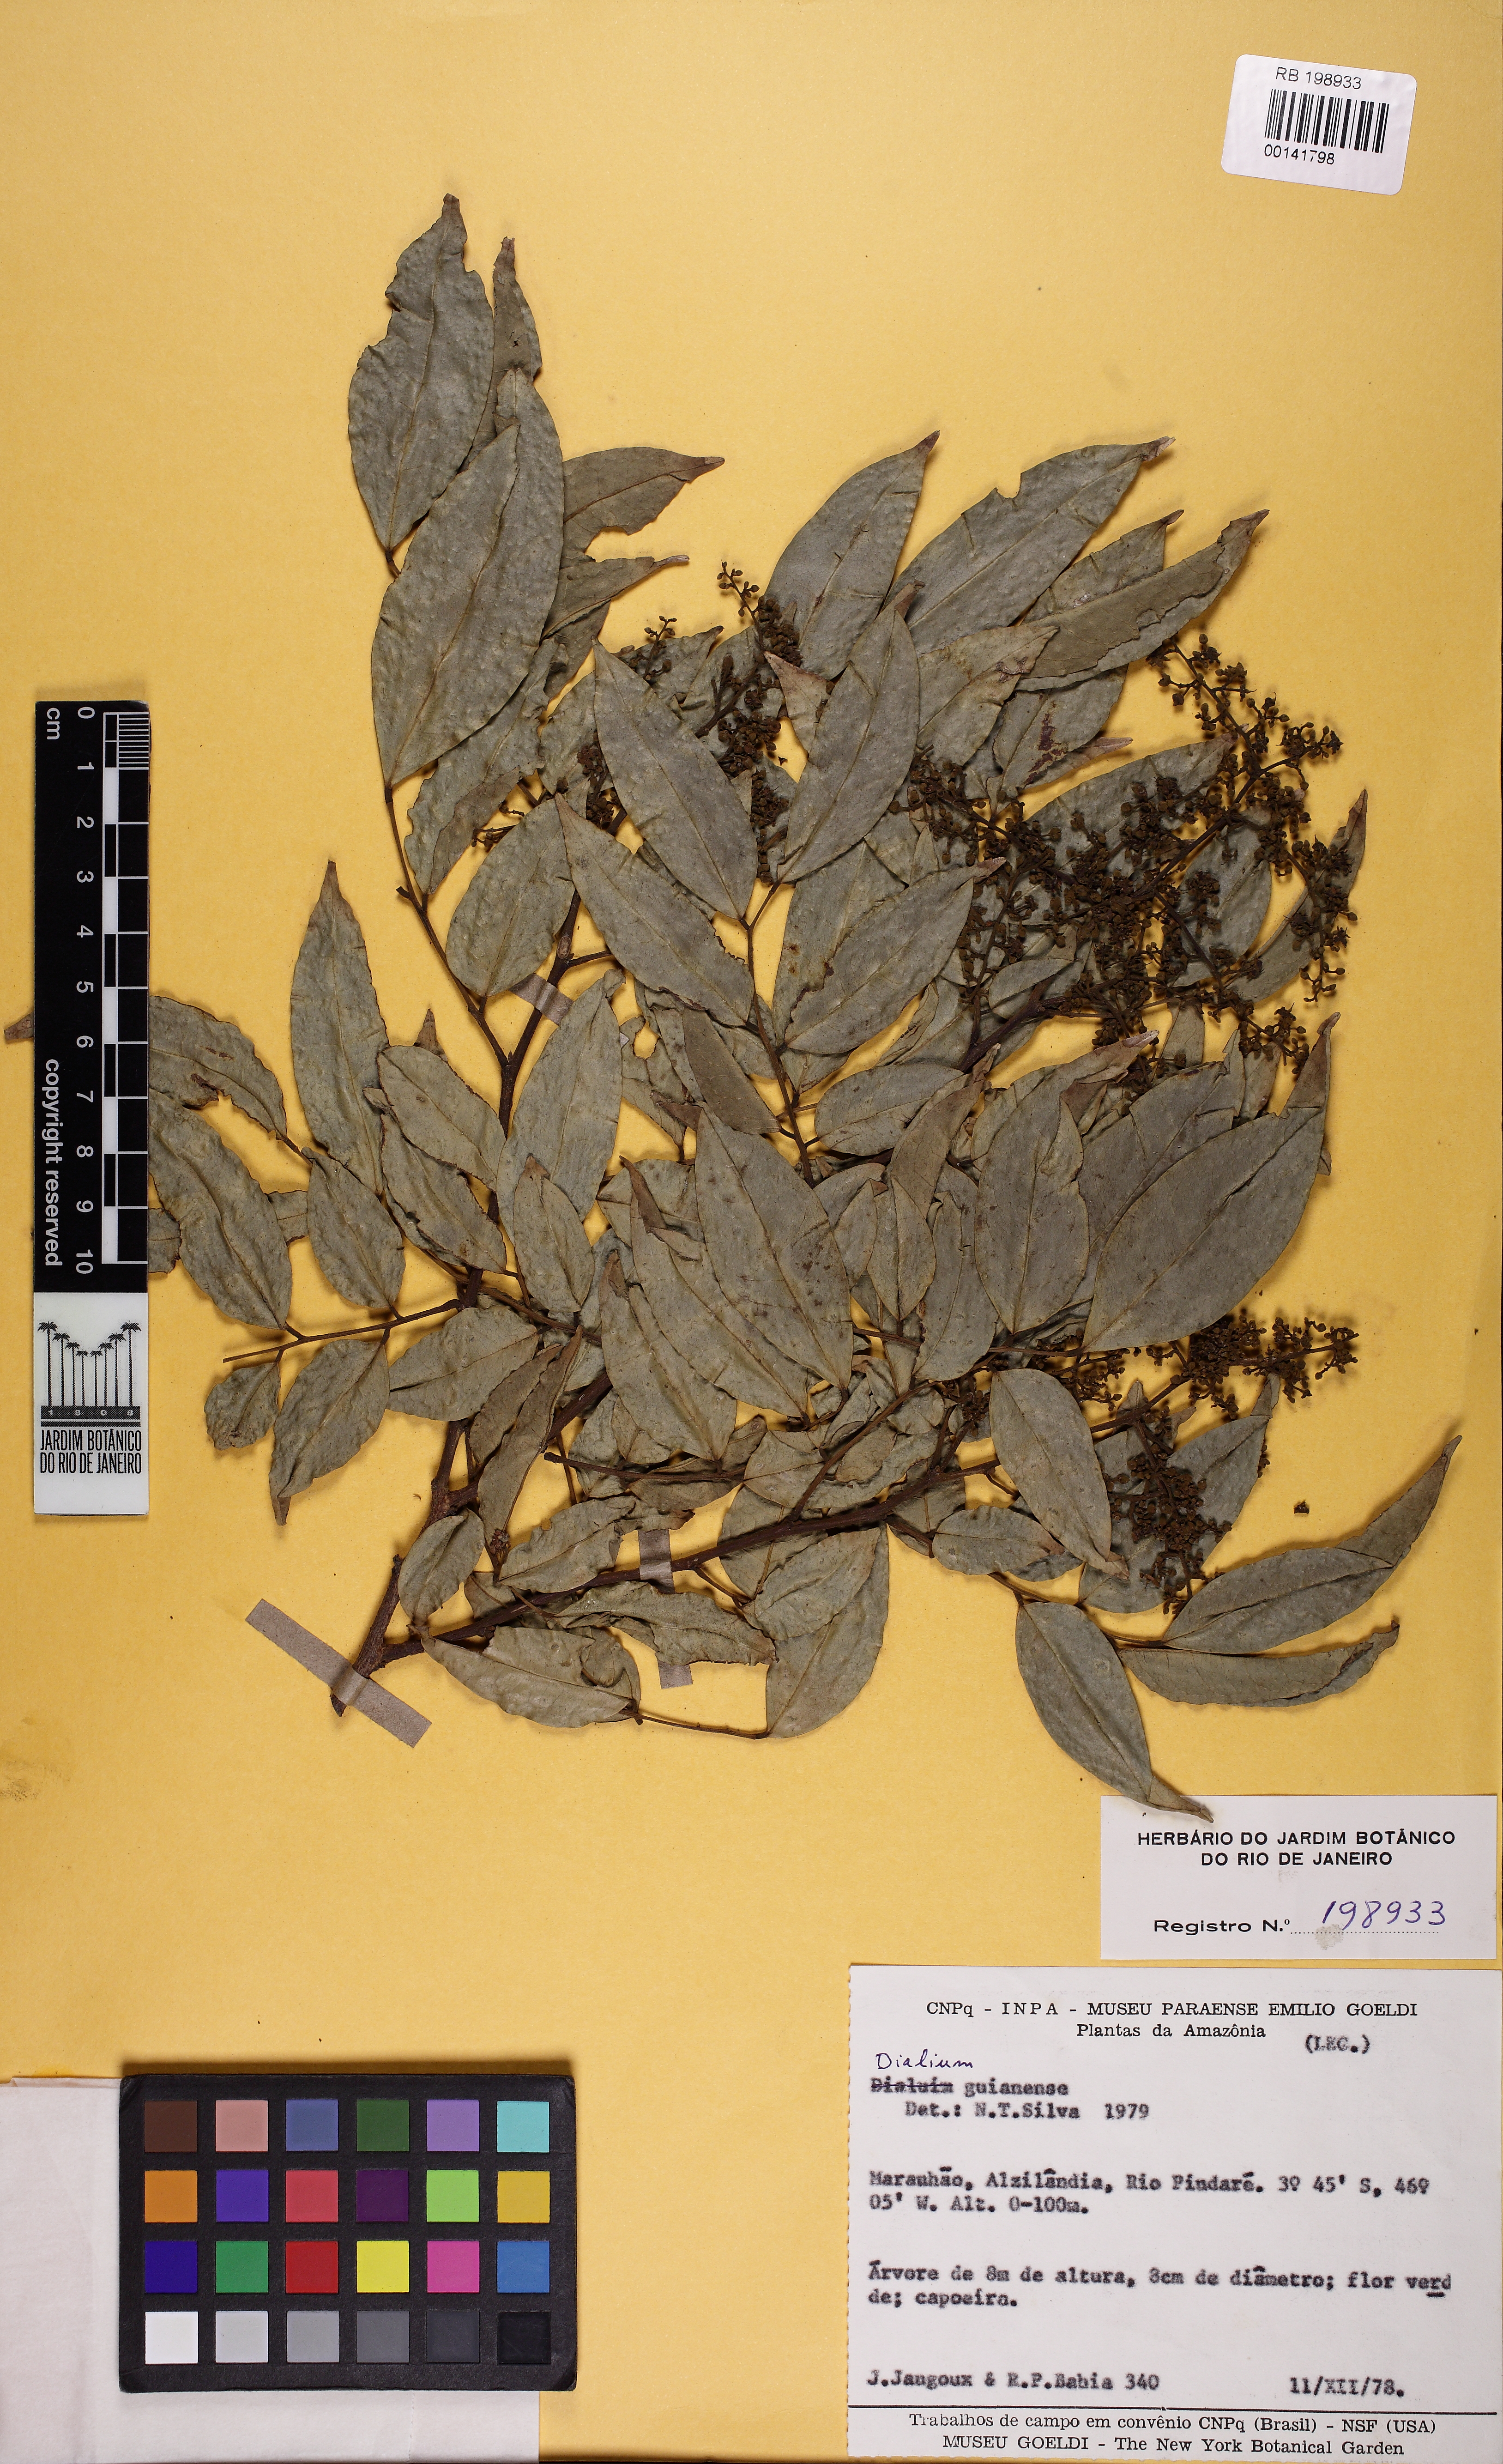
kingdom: Plantae
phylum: Tracheophyta
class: Magnoliopsida
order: Fabales
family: Fabaceae
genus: Dialium
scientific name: Dialium guianense
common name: Ironwood
